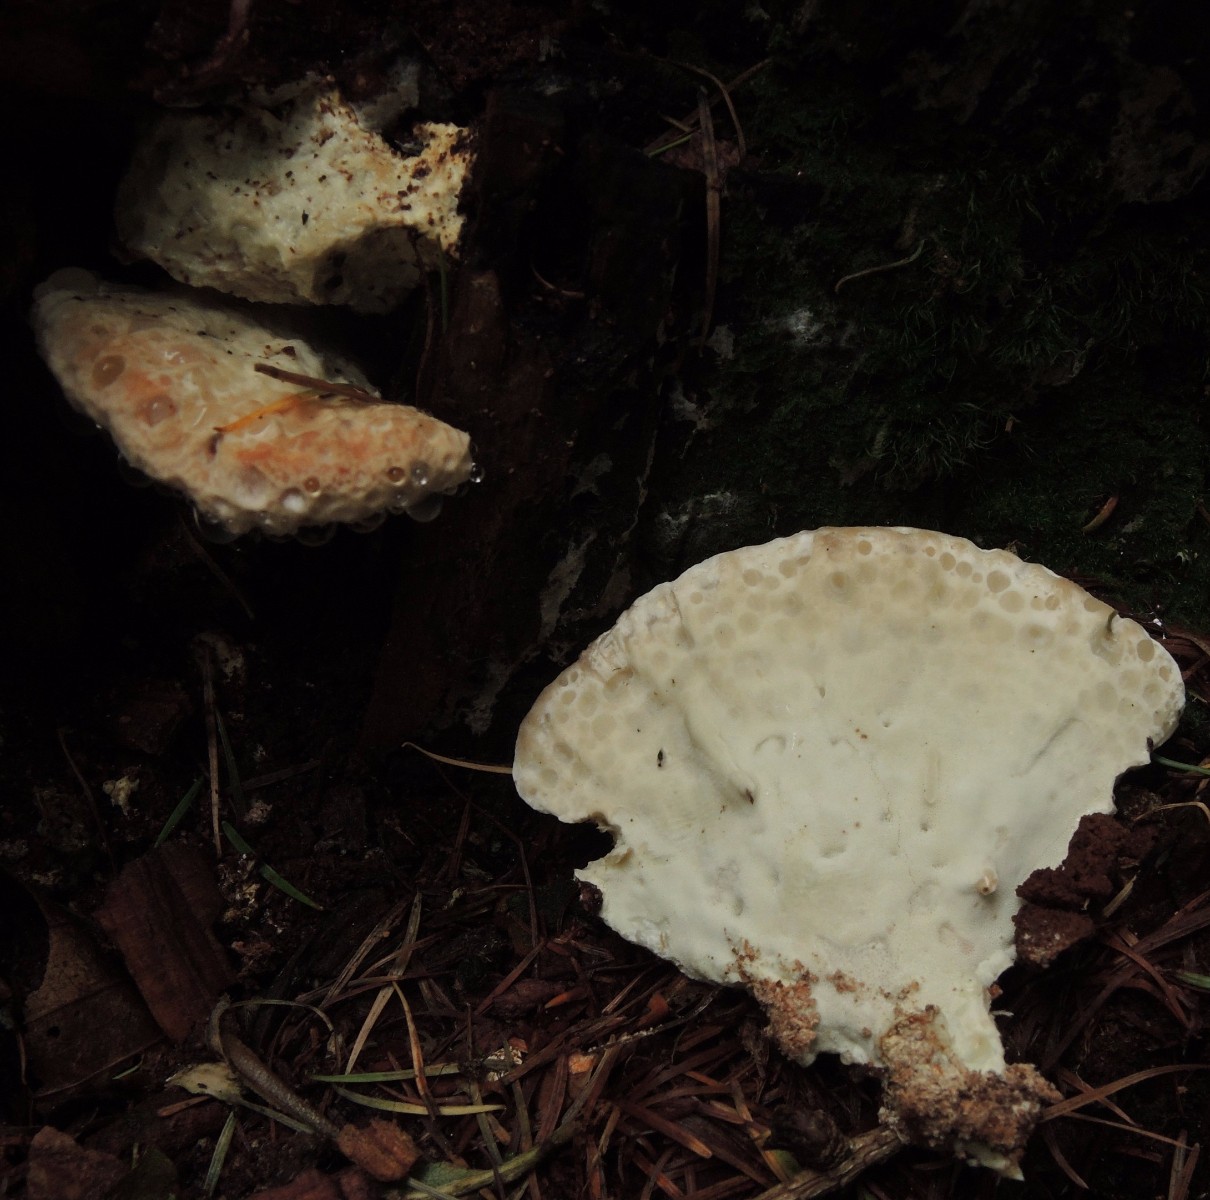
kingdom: Fungi
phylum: Basidiomycota
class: Agaricomycetes
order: Polyporales
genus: Calcipostia
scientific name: Calcipostia guttulata
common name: dråbe-kødporesvamp
